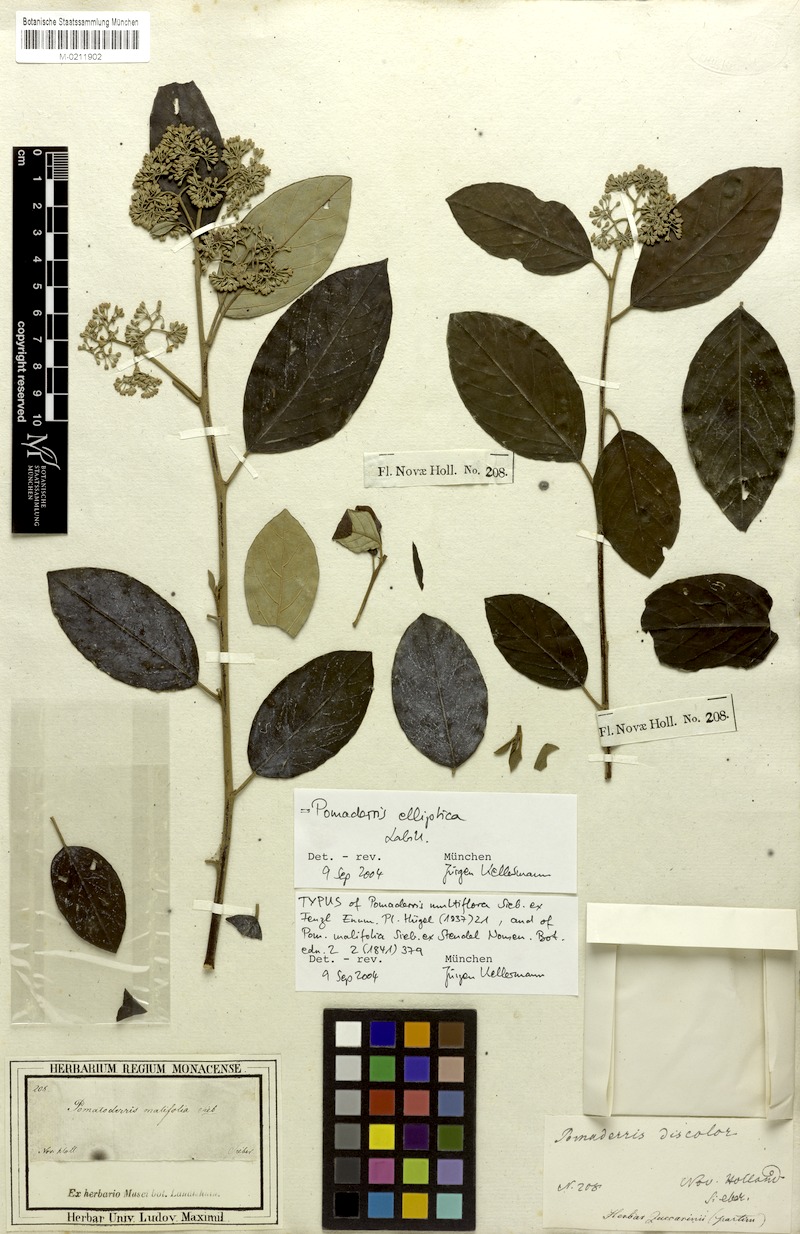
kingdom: Plantae
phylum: Tracheophyta
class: Magnoliopsida
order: Rosales
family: Rhamnaceae
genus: Pomaderris
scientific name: Pomaderris multiflora
